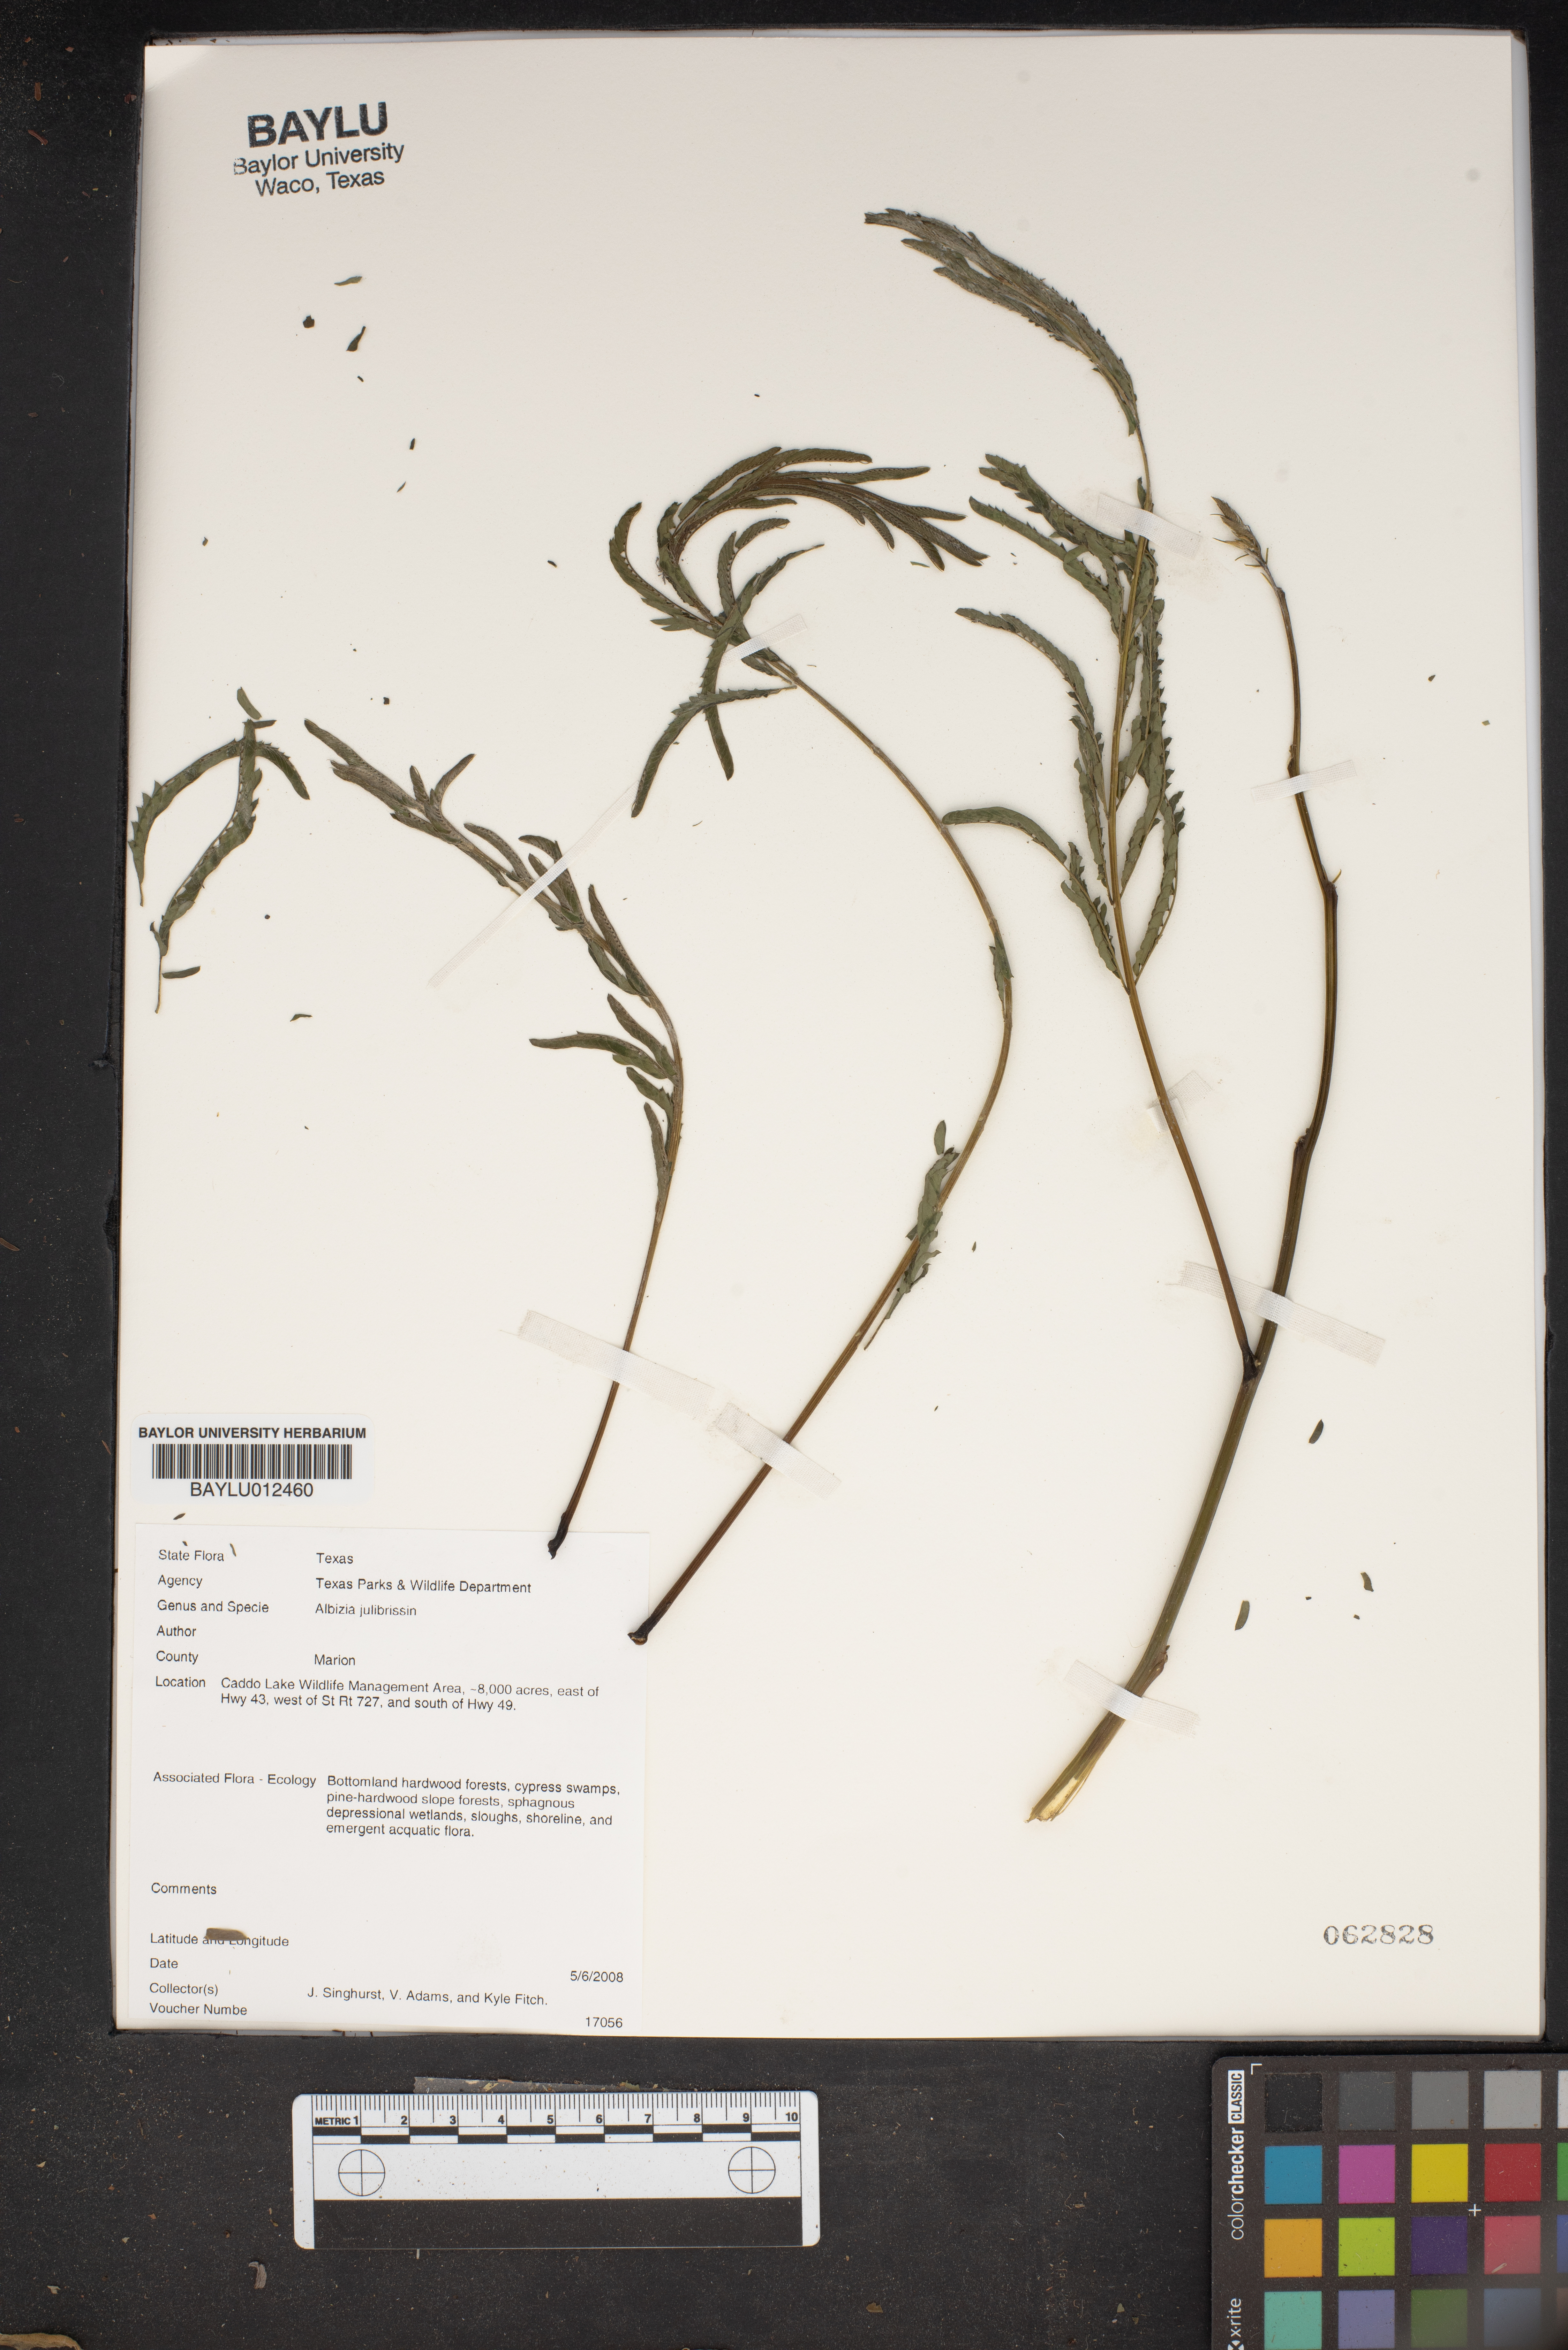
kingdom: Plantae
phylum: Tracheophyta
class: Magnoliopsida
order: Fabales
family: Fabaceae
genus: Albizia
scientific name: Albizia julibrissin
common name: Silktree
